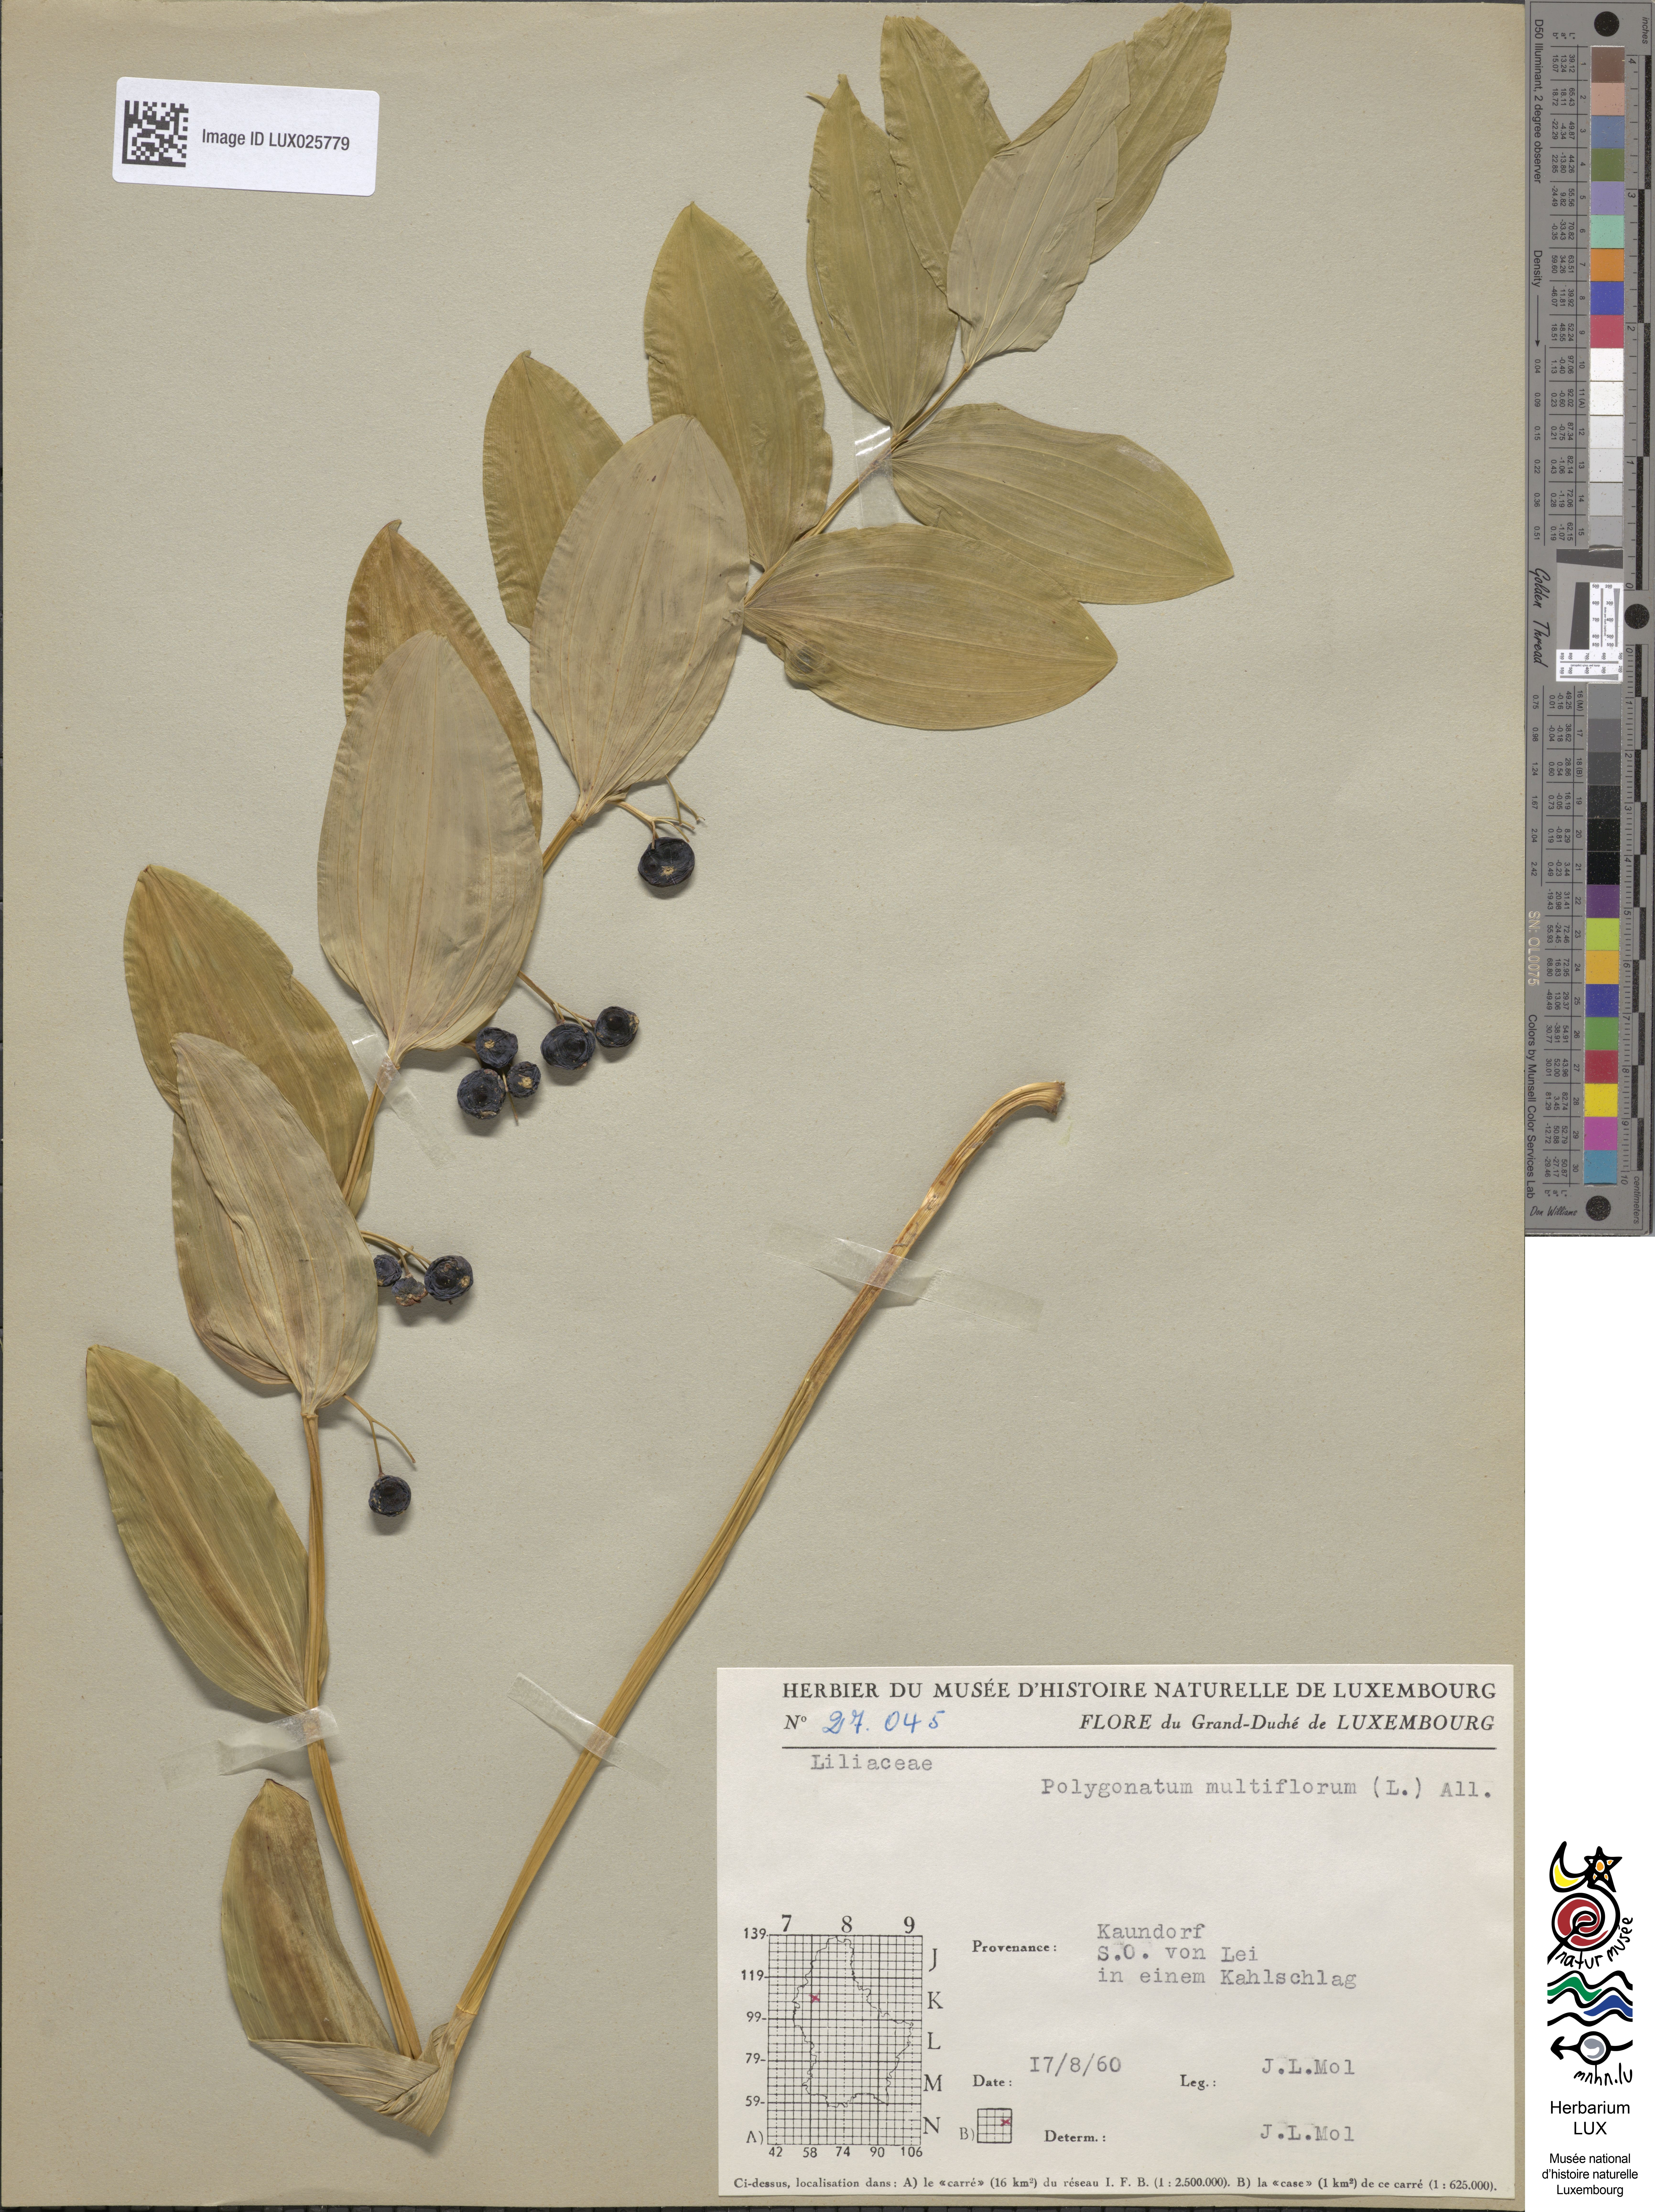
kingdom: Plantae
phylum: Tracheophyta
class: Liliopsida
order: Asparagales
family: Asparagaceae
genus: Polygonatum
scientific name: Polygonatum multiflorum
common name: Solomon's-seal
